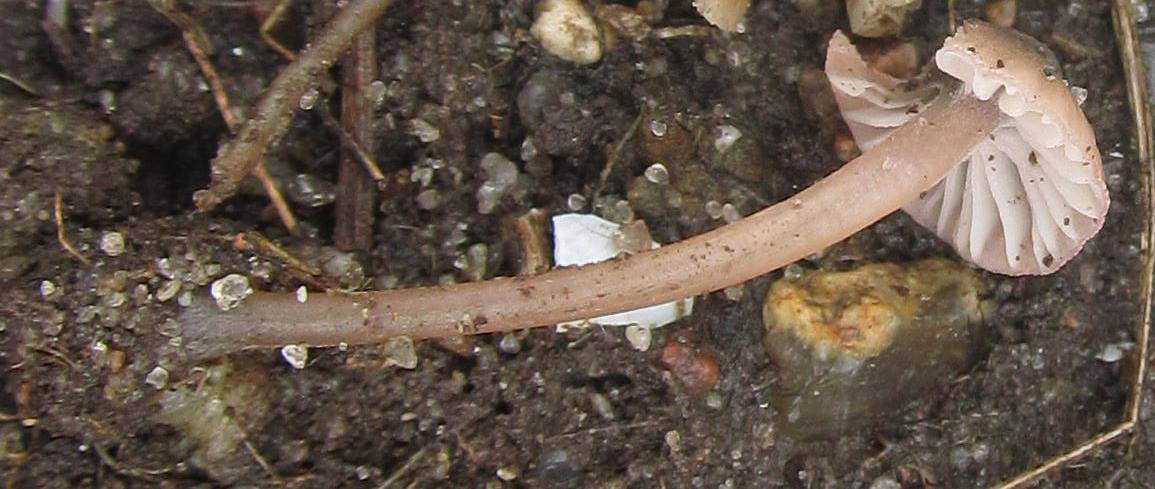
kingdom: Fungi
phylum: Basidiomycota
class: Agaricomycetes
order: Agaricales
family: Mycenaceae
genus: Mycena
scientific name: Mycena olivaceomarginata
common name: brunægget huesvamp
